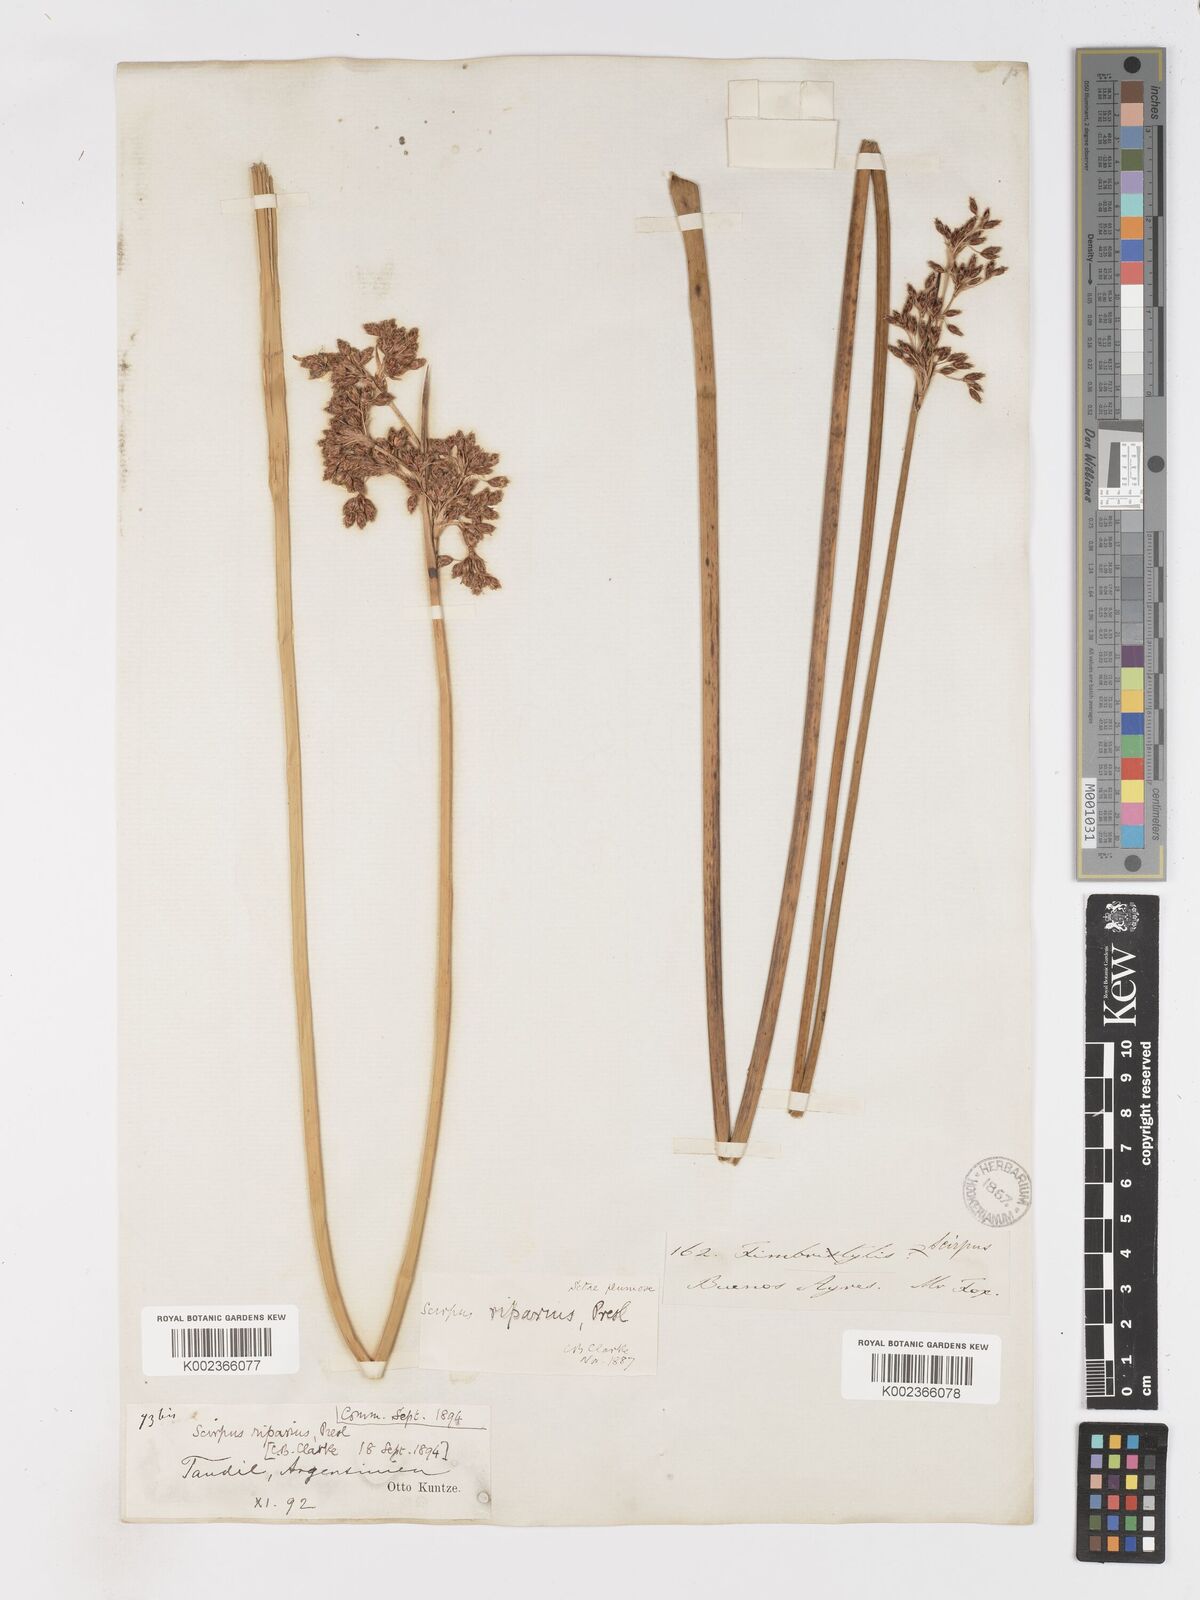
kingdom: Plantae
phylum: Tracheophyta
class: Liliopsida
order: Poales
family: Cyperaceae
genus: Schoenoplectus
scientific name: Schoenoplectus californicus
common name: California bulrush
